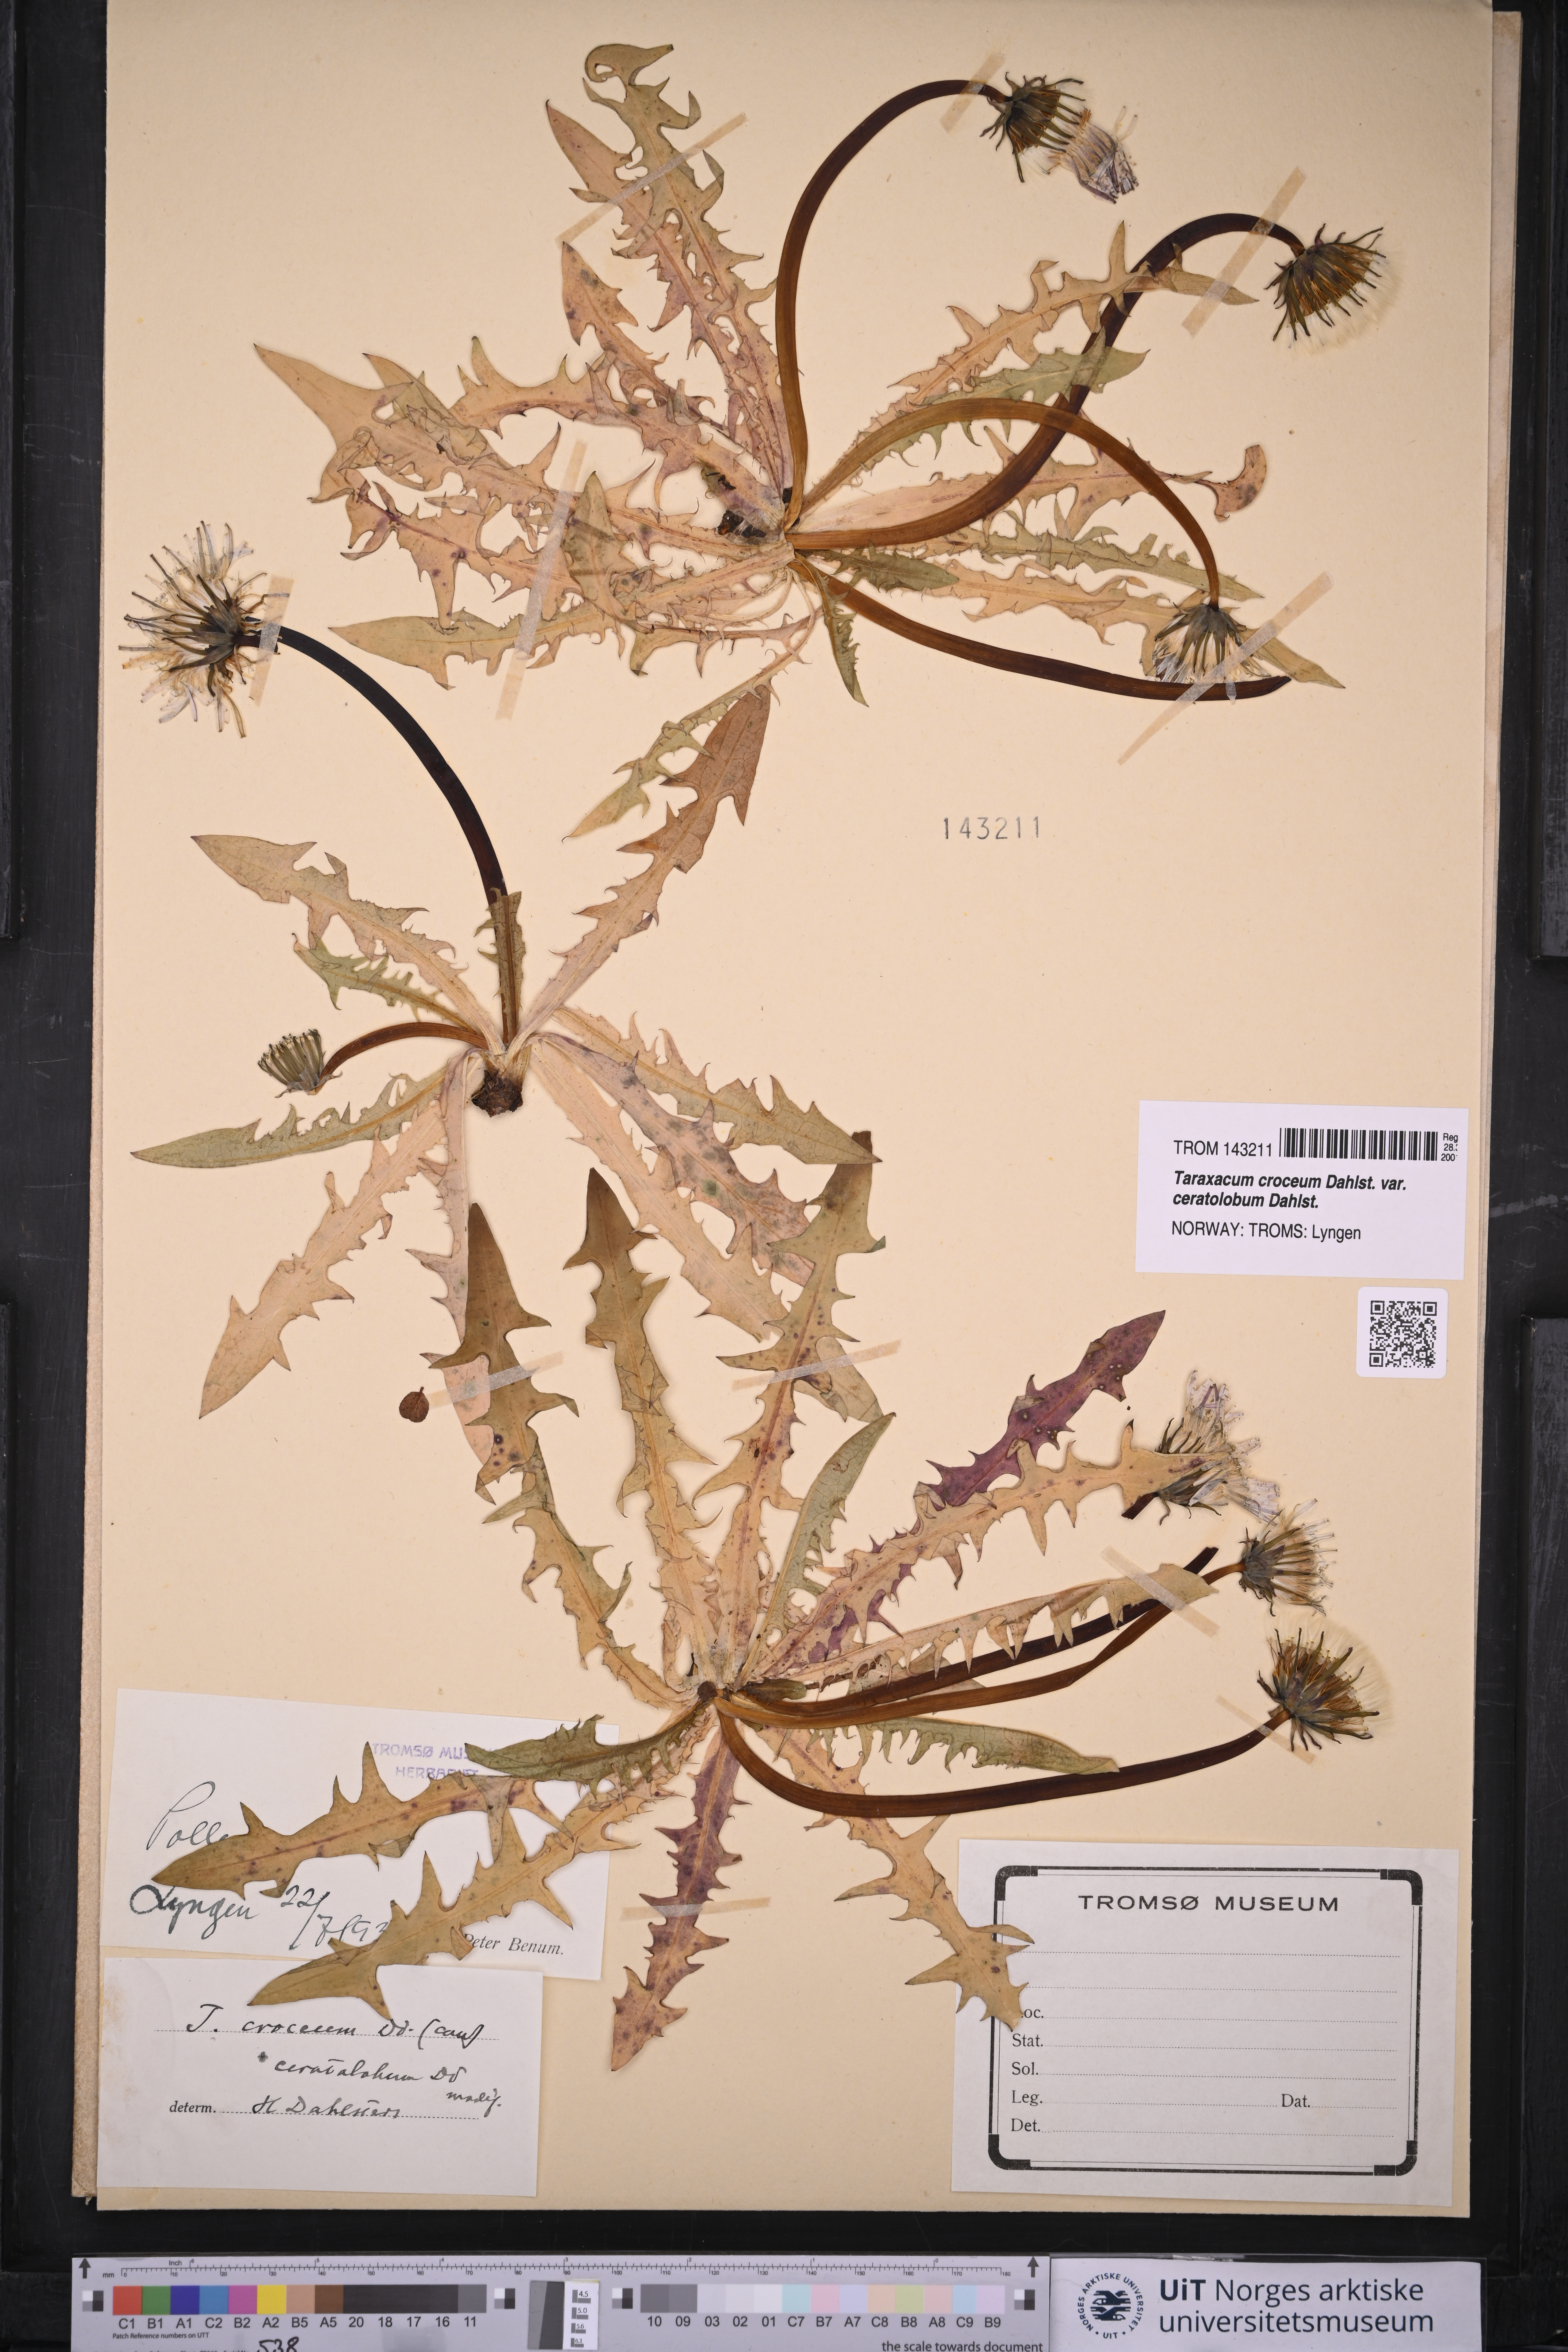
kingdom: Plantae
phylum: Tracheophyta
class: Magnoliopsida
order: Asterales
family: Asteraceae
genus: Taraxacum
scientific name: Taraxacum croceum
